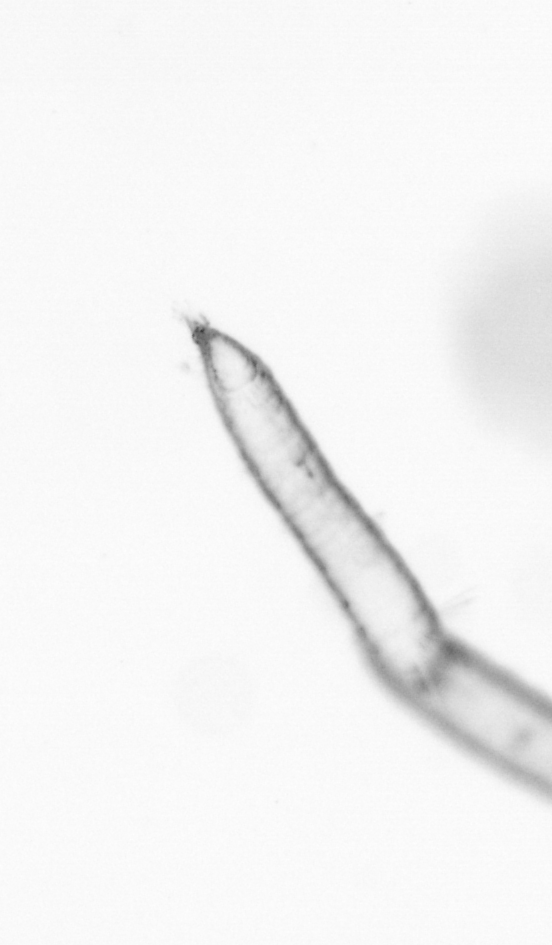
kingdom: Animalia
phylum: Arthropoda
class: Copepoda
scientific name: Copepoda
